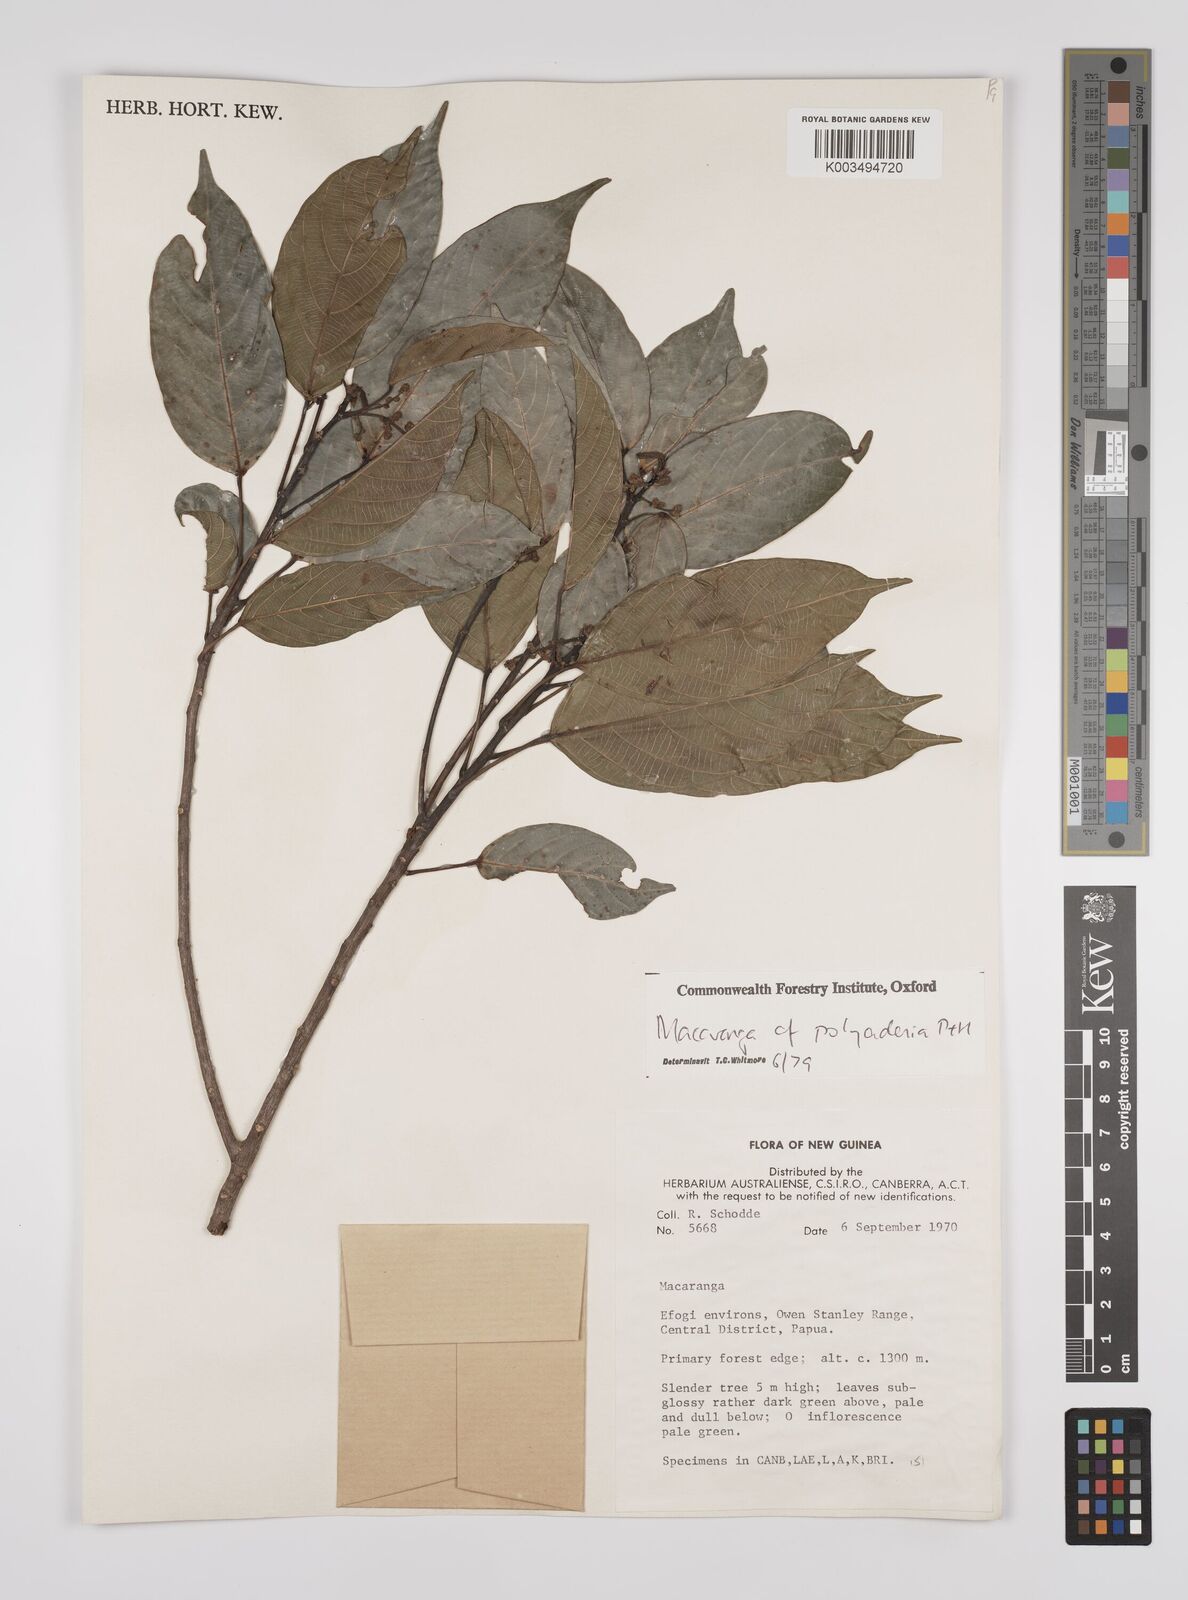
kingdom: Plantae
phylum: Tracheophyta
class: Magnoliopsida
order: Malpighiales
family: Euphorbiaceae
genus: Macaranga
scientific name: Macaranga polyadenia
